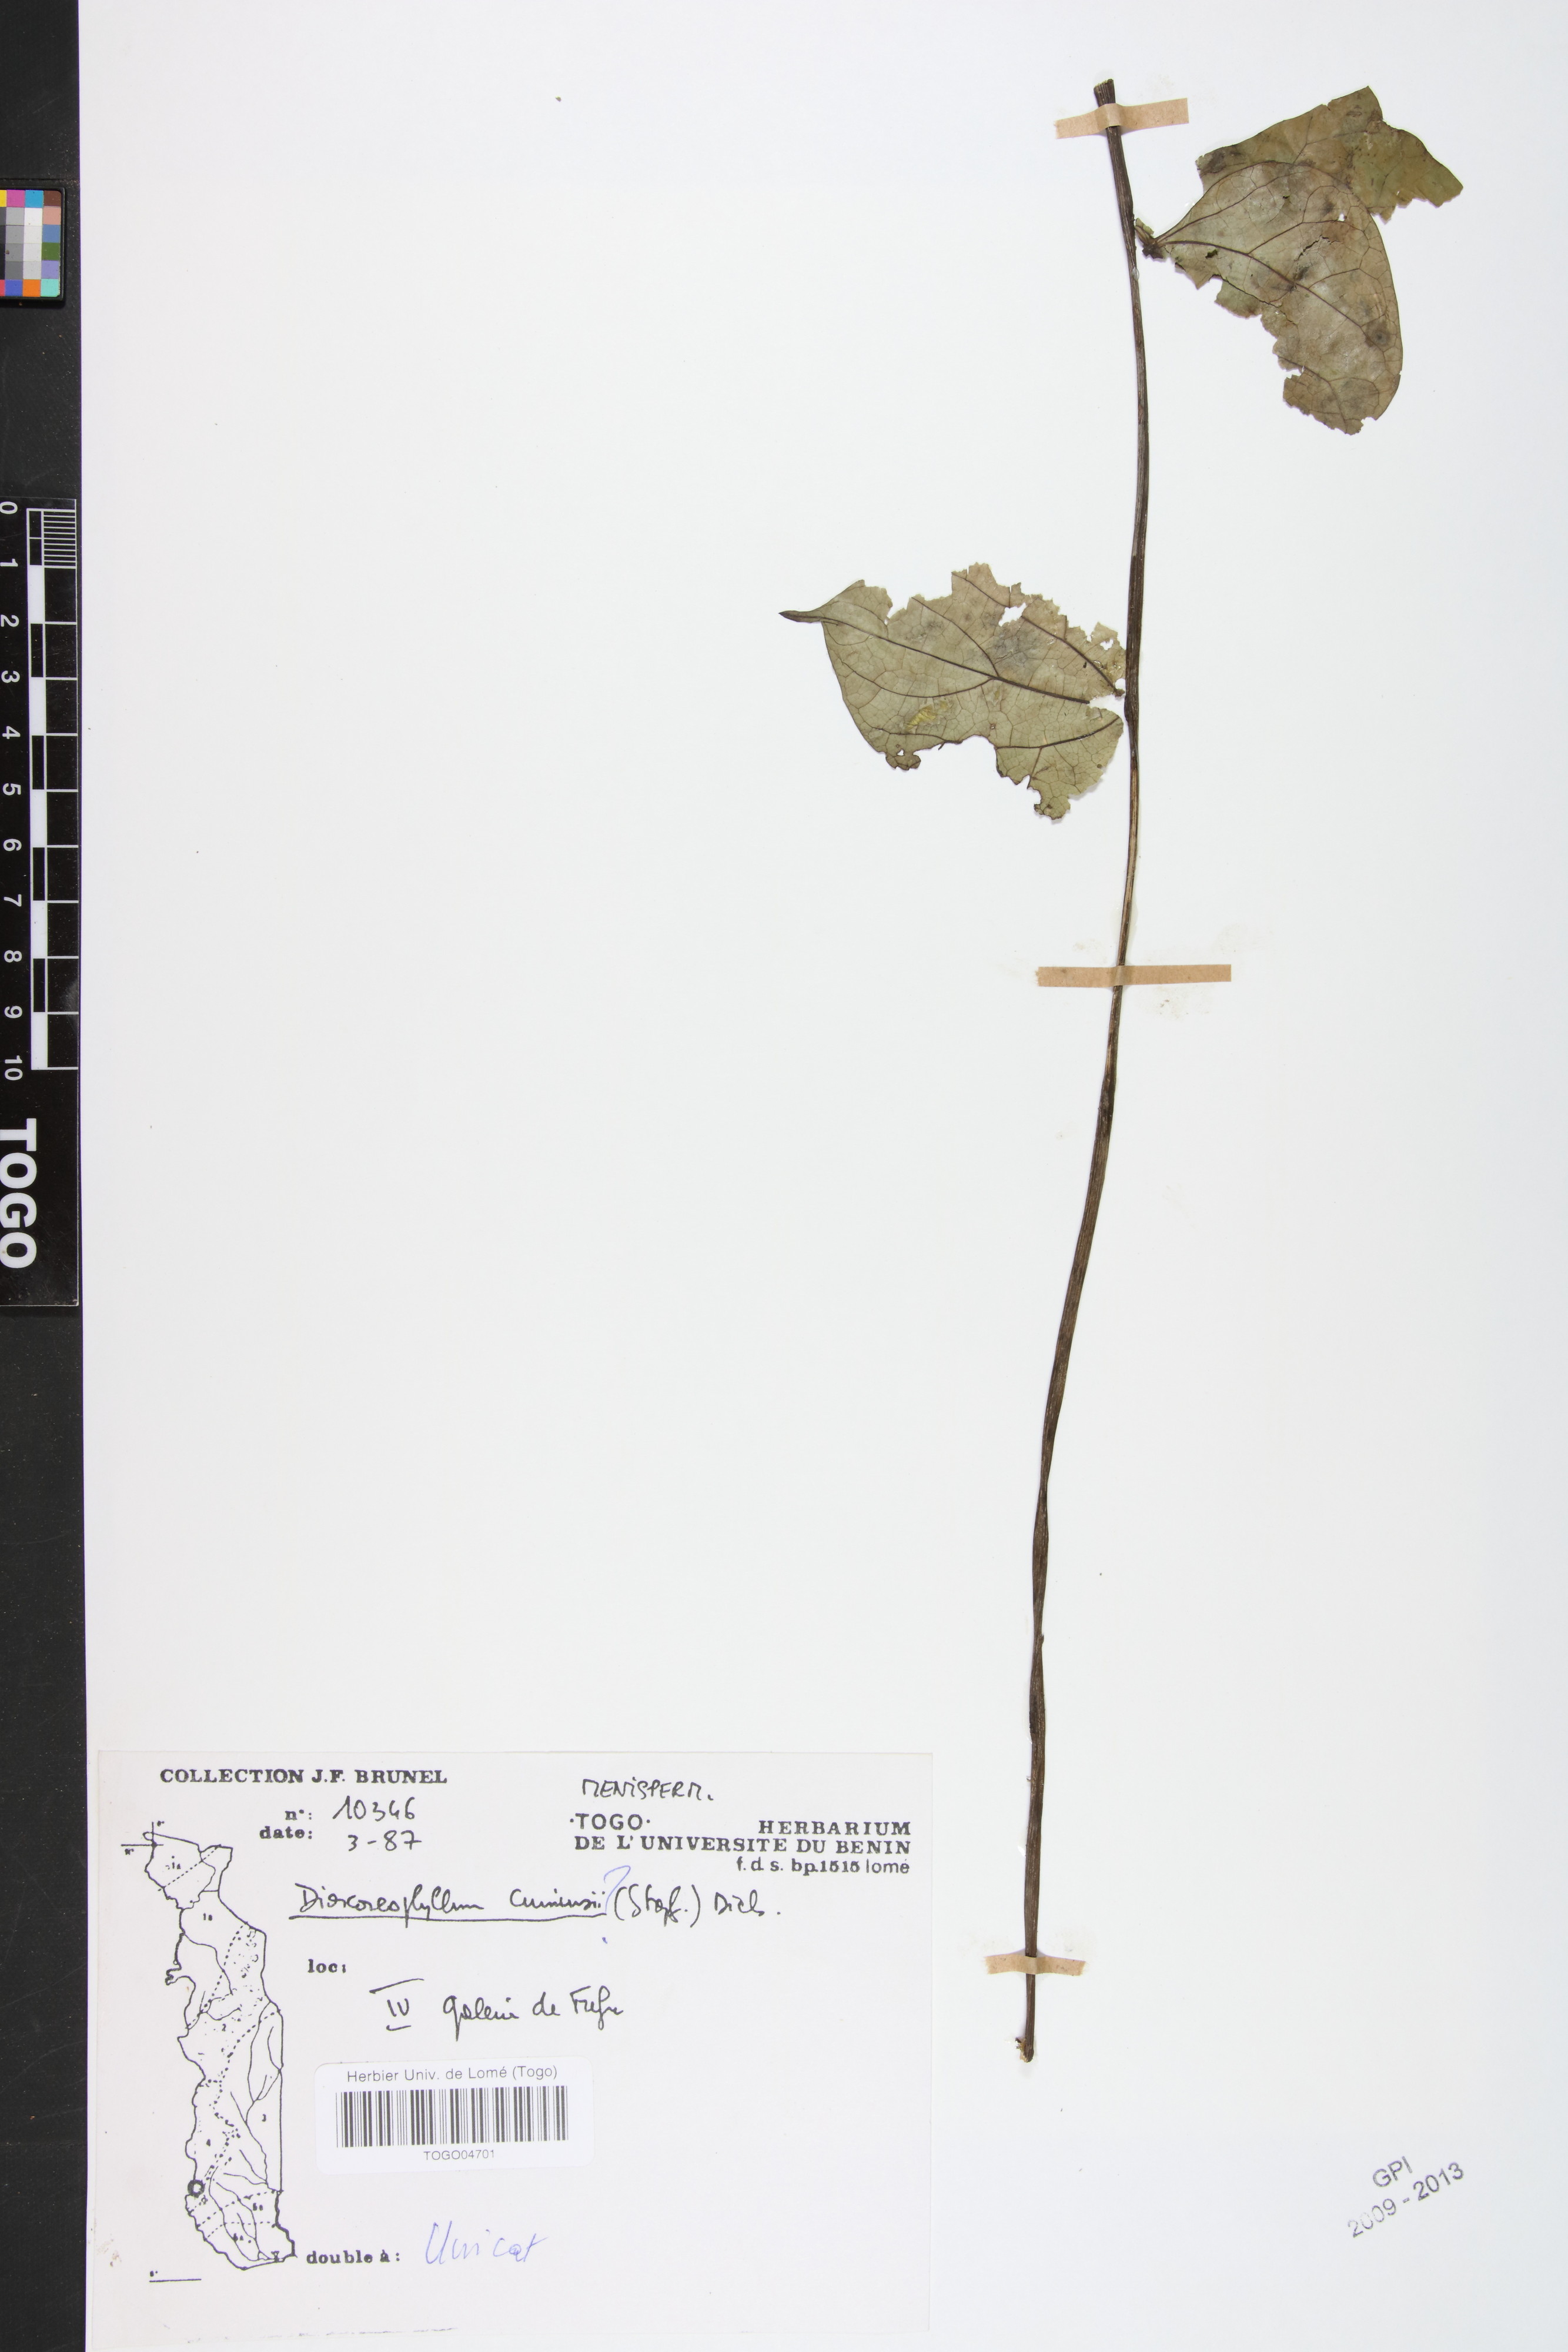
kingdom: Plantae
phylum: Tracheophyta
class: Magnoliopsida
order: Ranunculales
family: Menispermaceae
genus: Dioscoreophyllum
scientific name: Dioscoreophyllum volkensii
